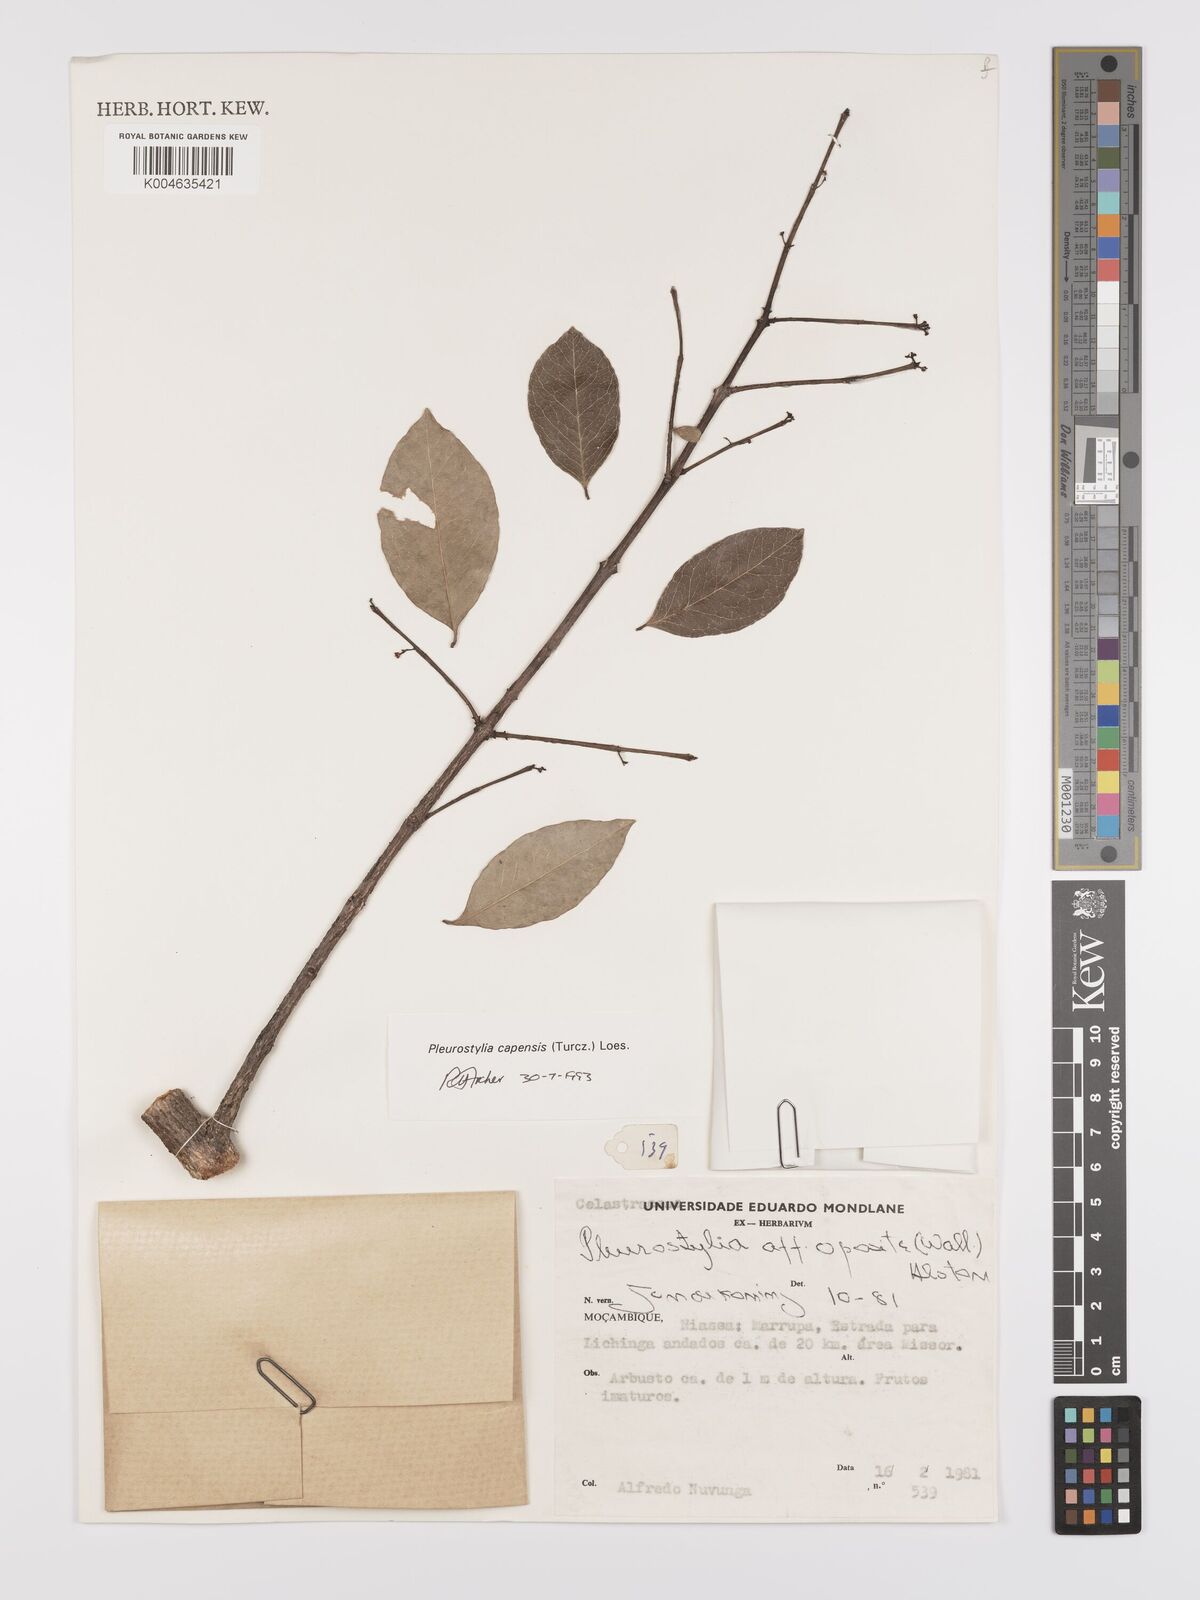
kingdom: Plantae
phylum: Tracheophyta
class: Magnoliopsida
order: Celastrales
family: Celastraceae
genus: Pleurostylia
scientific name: Pleurostylia africana
